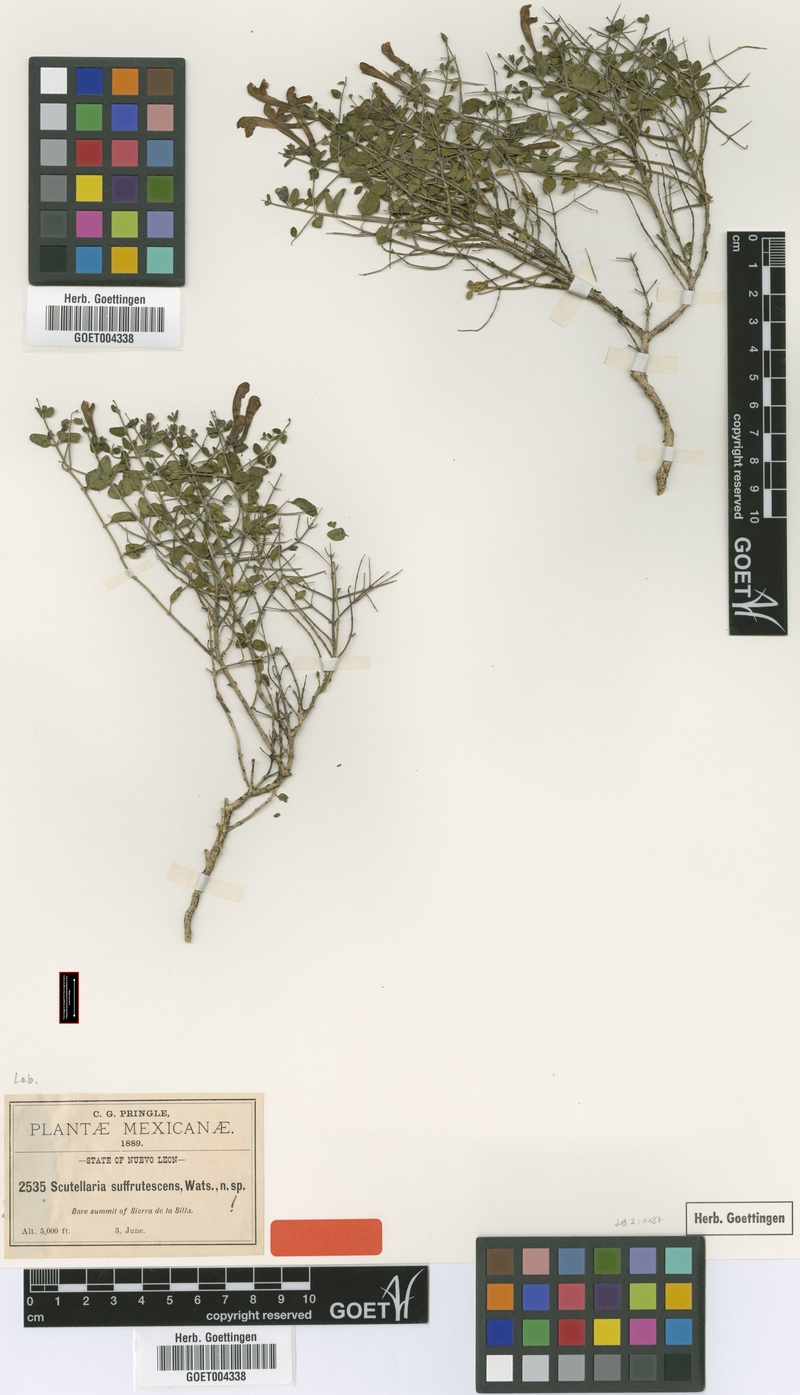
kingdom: Plantae
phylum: Tracheophyta
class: Magnoliopsida
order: Lamiales
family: Lamiaceae
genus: Scutellaria
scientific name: Scutellaria suffrutescens
